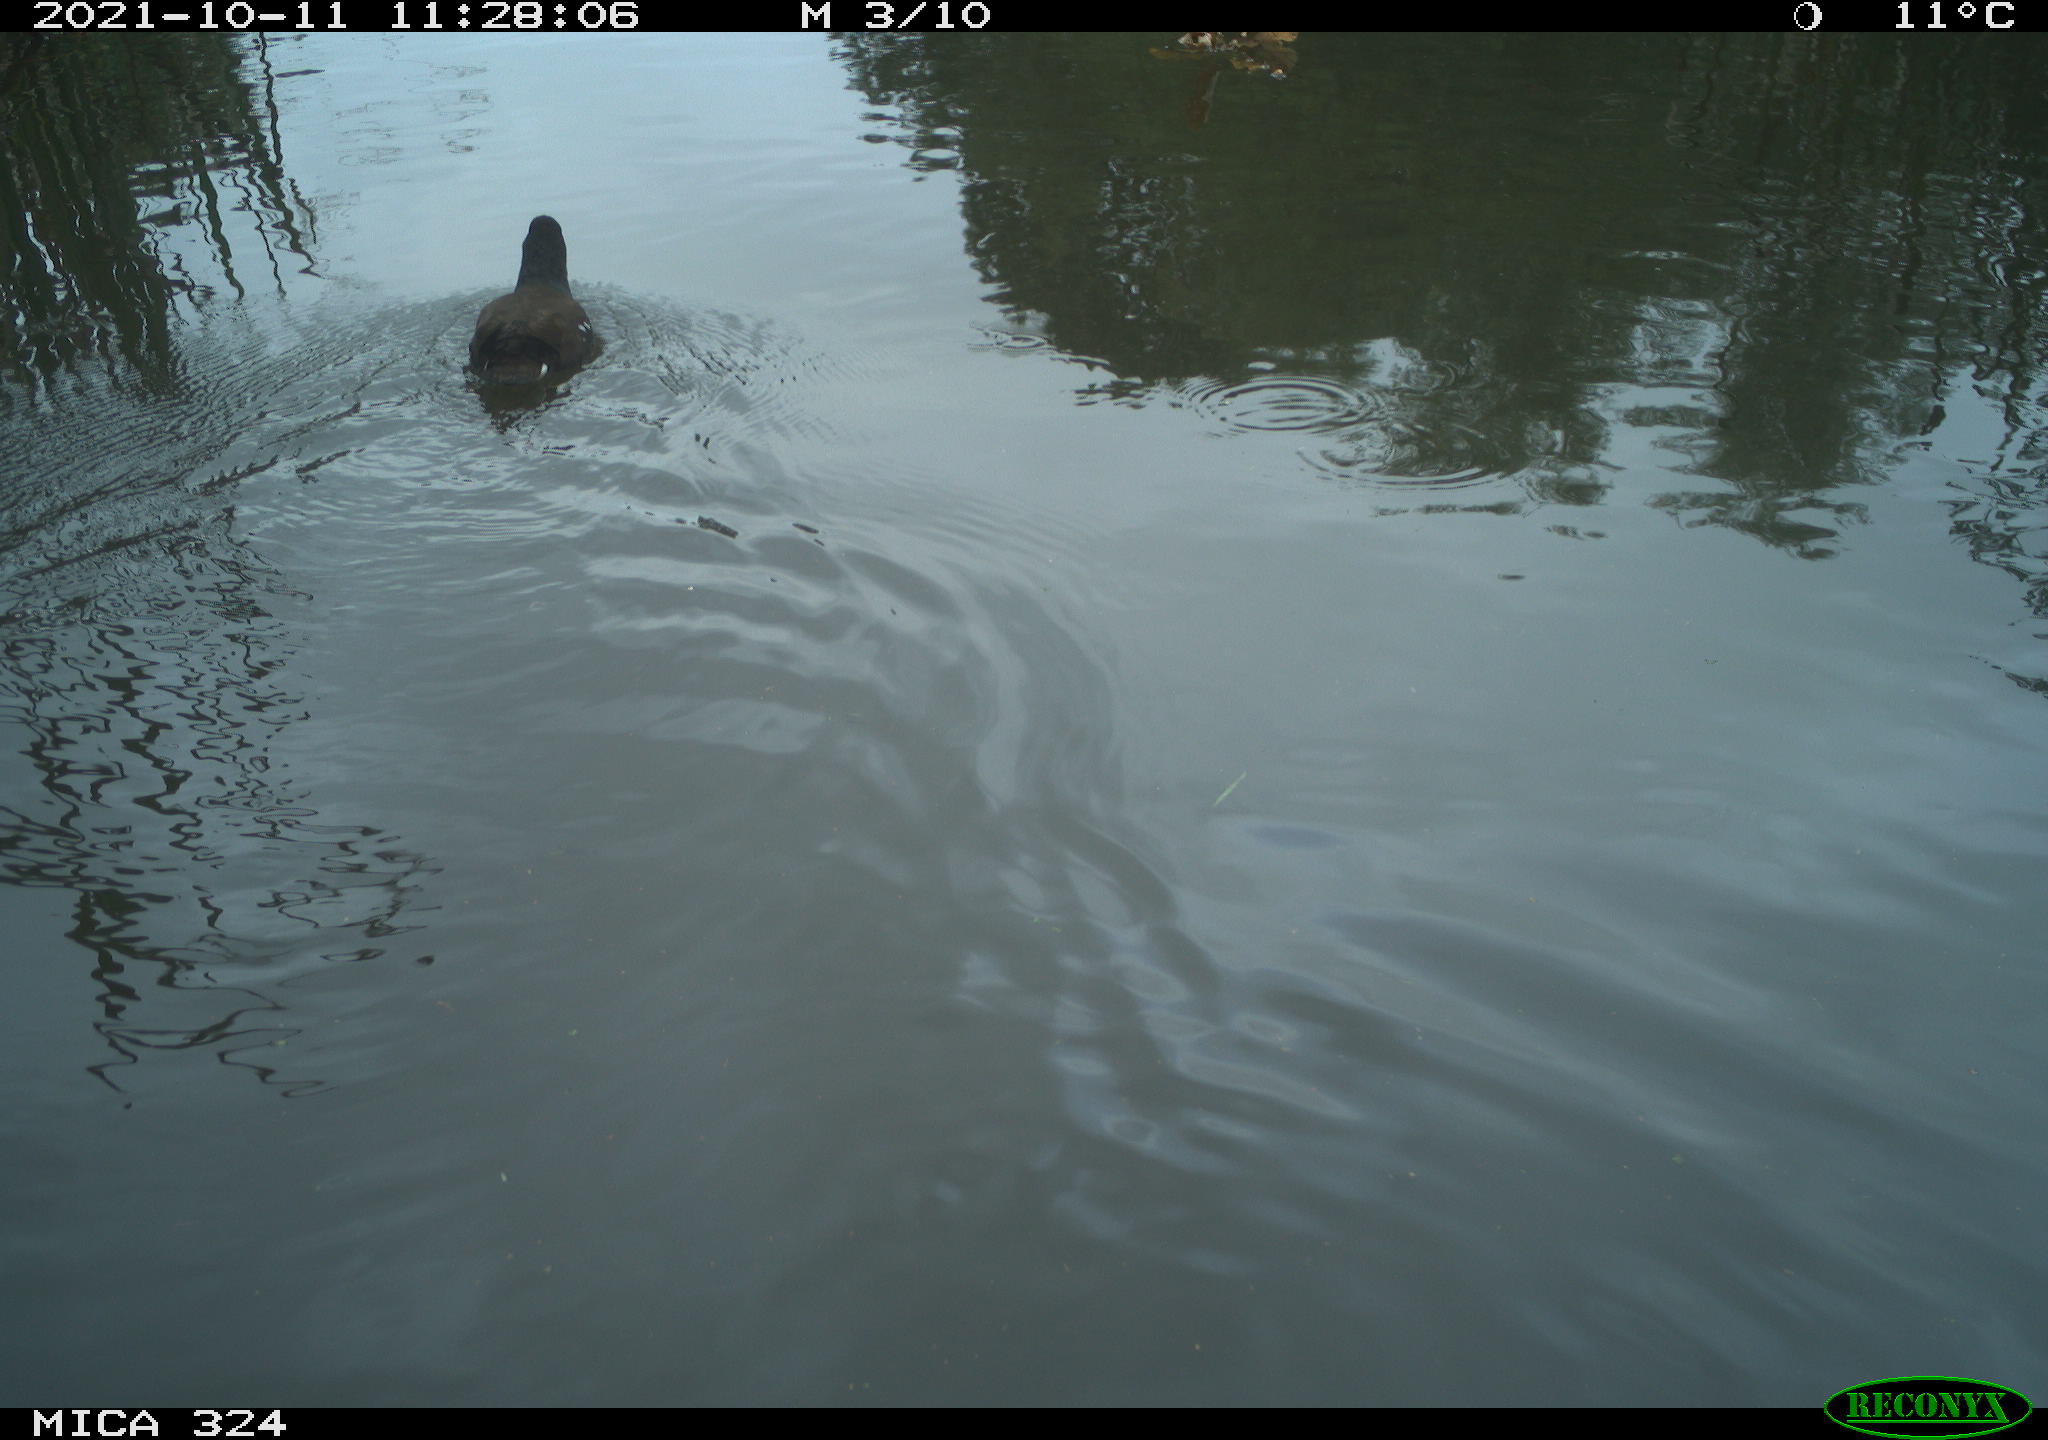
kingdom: Animalia
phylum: Chordata
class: Aves
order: Gruiformes
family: Rallidae
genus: Gallinula
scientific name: Gallinula chloropus
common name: Common moorhen
